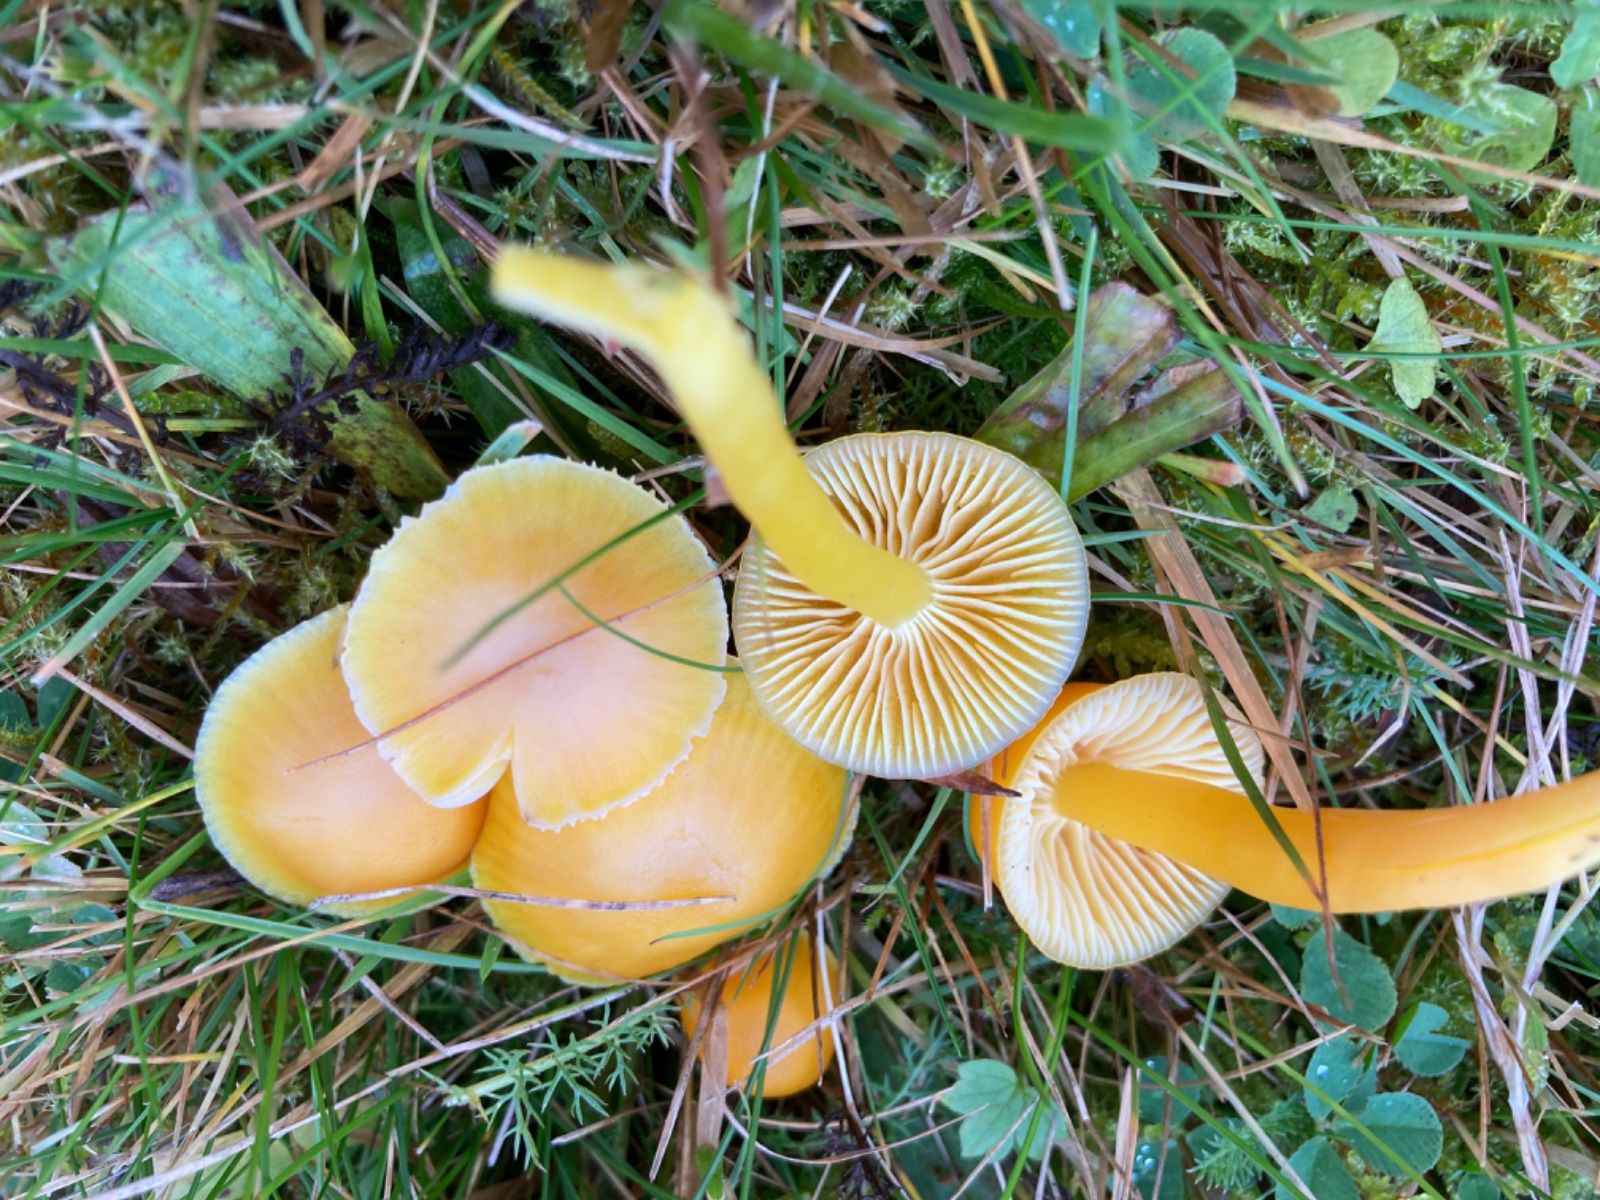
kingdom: Fungi
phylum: Basidiomycota
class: Agaricomycetes
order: Agaricales
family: Hygrophoraceae
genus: Hygrocybe
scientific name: Hygrocybe ceracea
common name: voksgul vokshat
